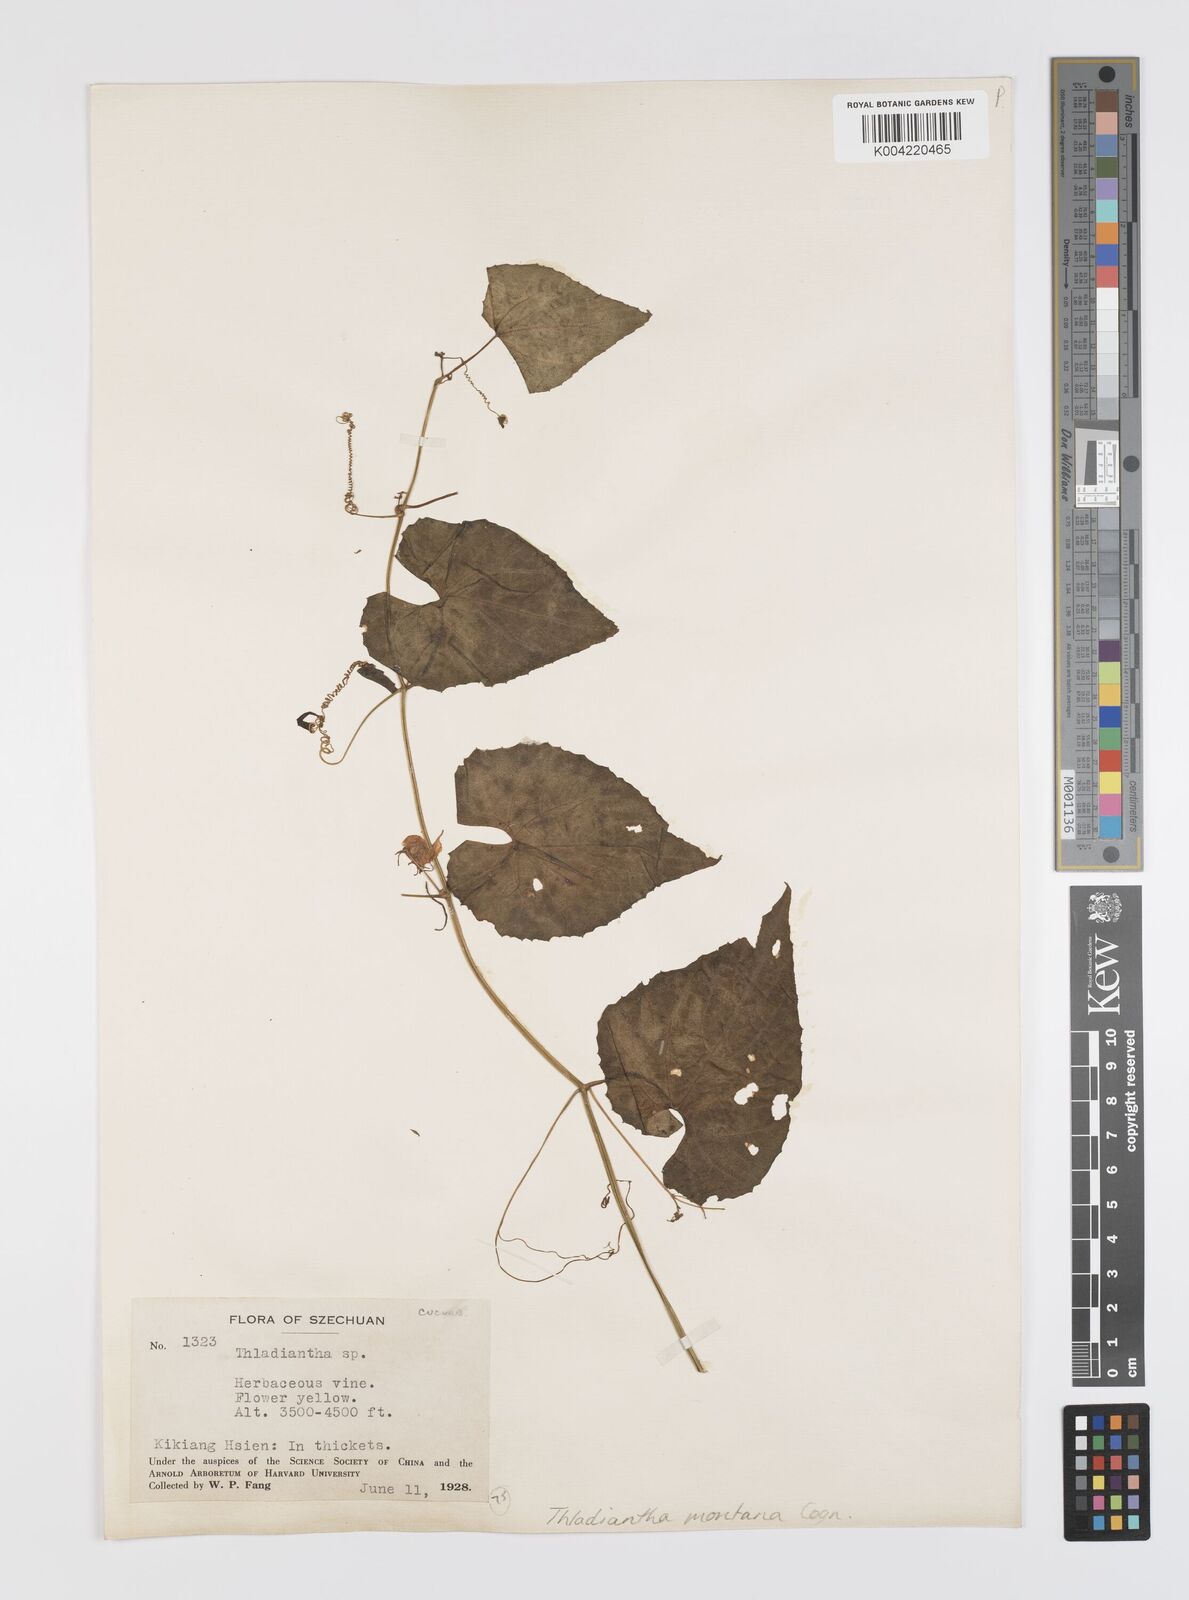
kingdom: Plantae
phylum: Tracheophyta
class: Magnoliopsida
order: Cucurbitales
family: Cucurbitaceae
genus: Thladiantha
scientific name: Thladiantha montana
